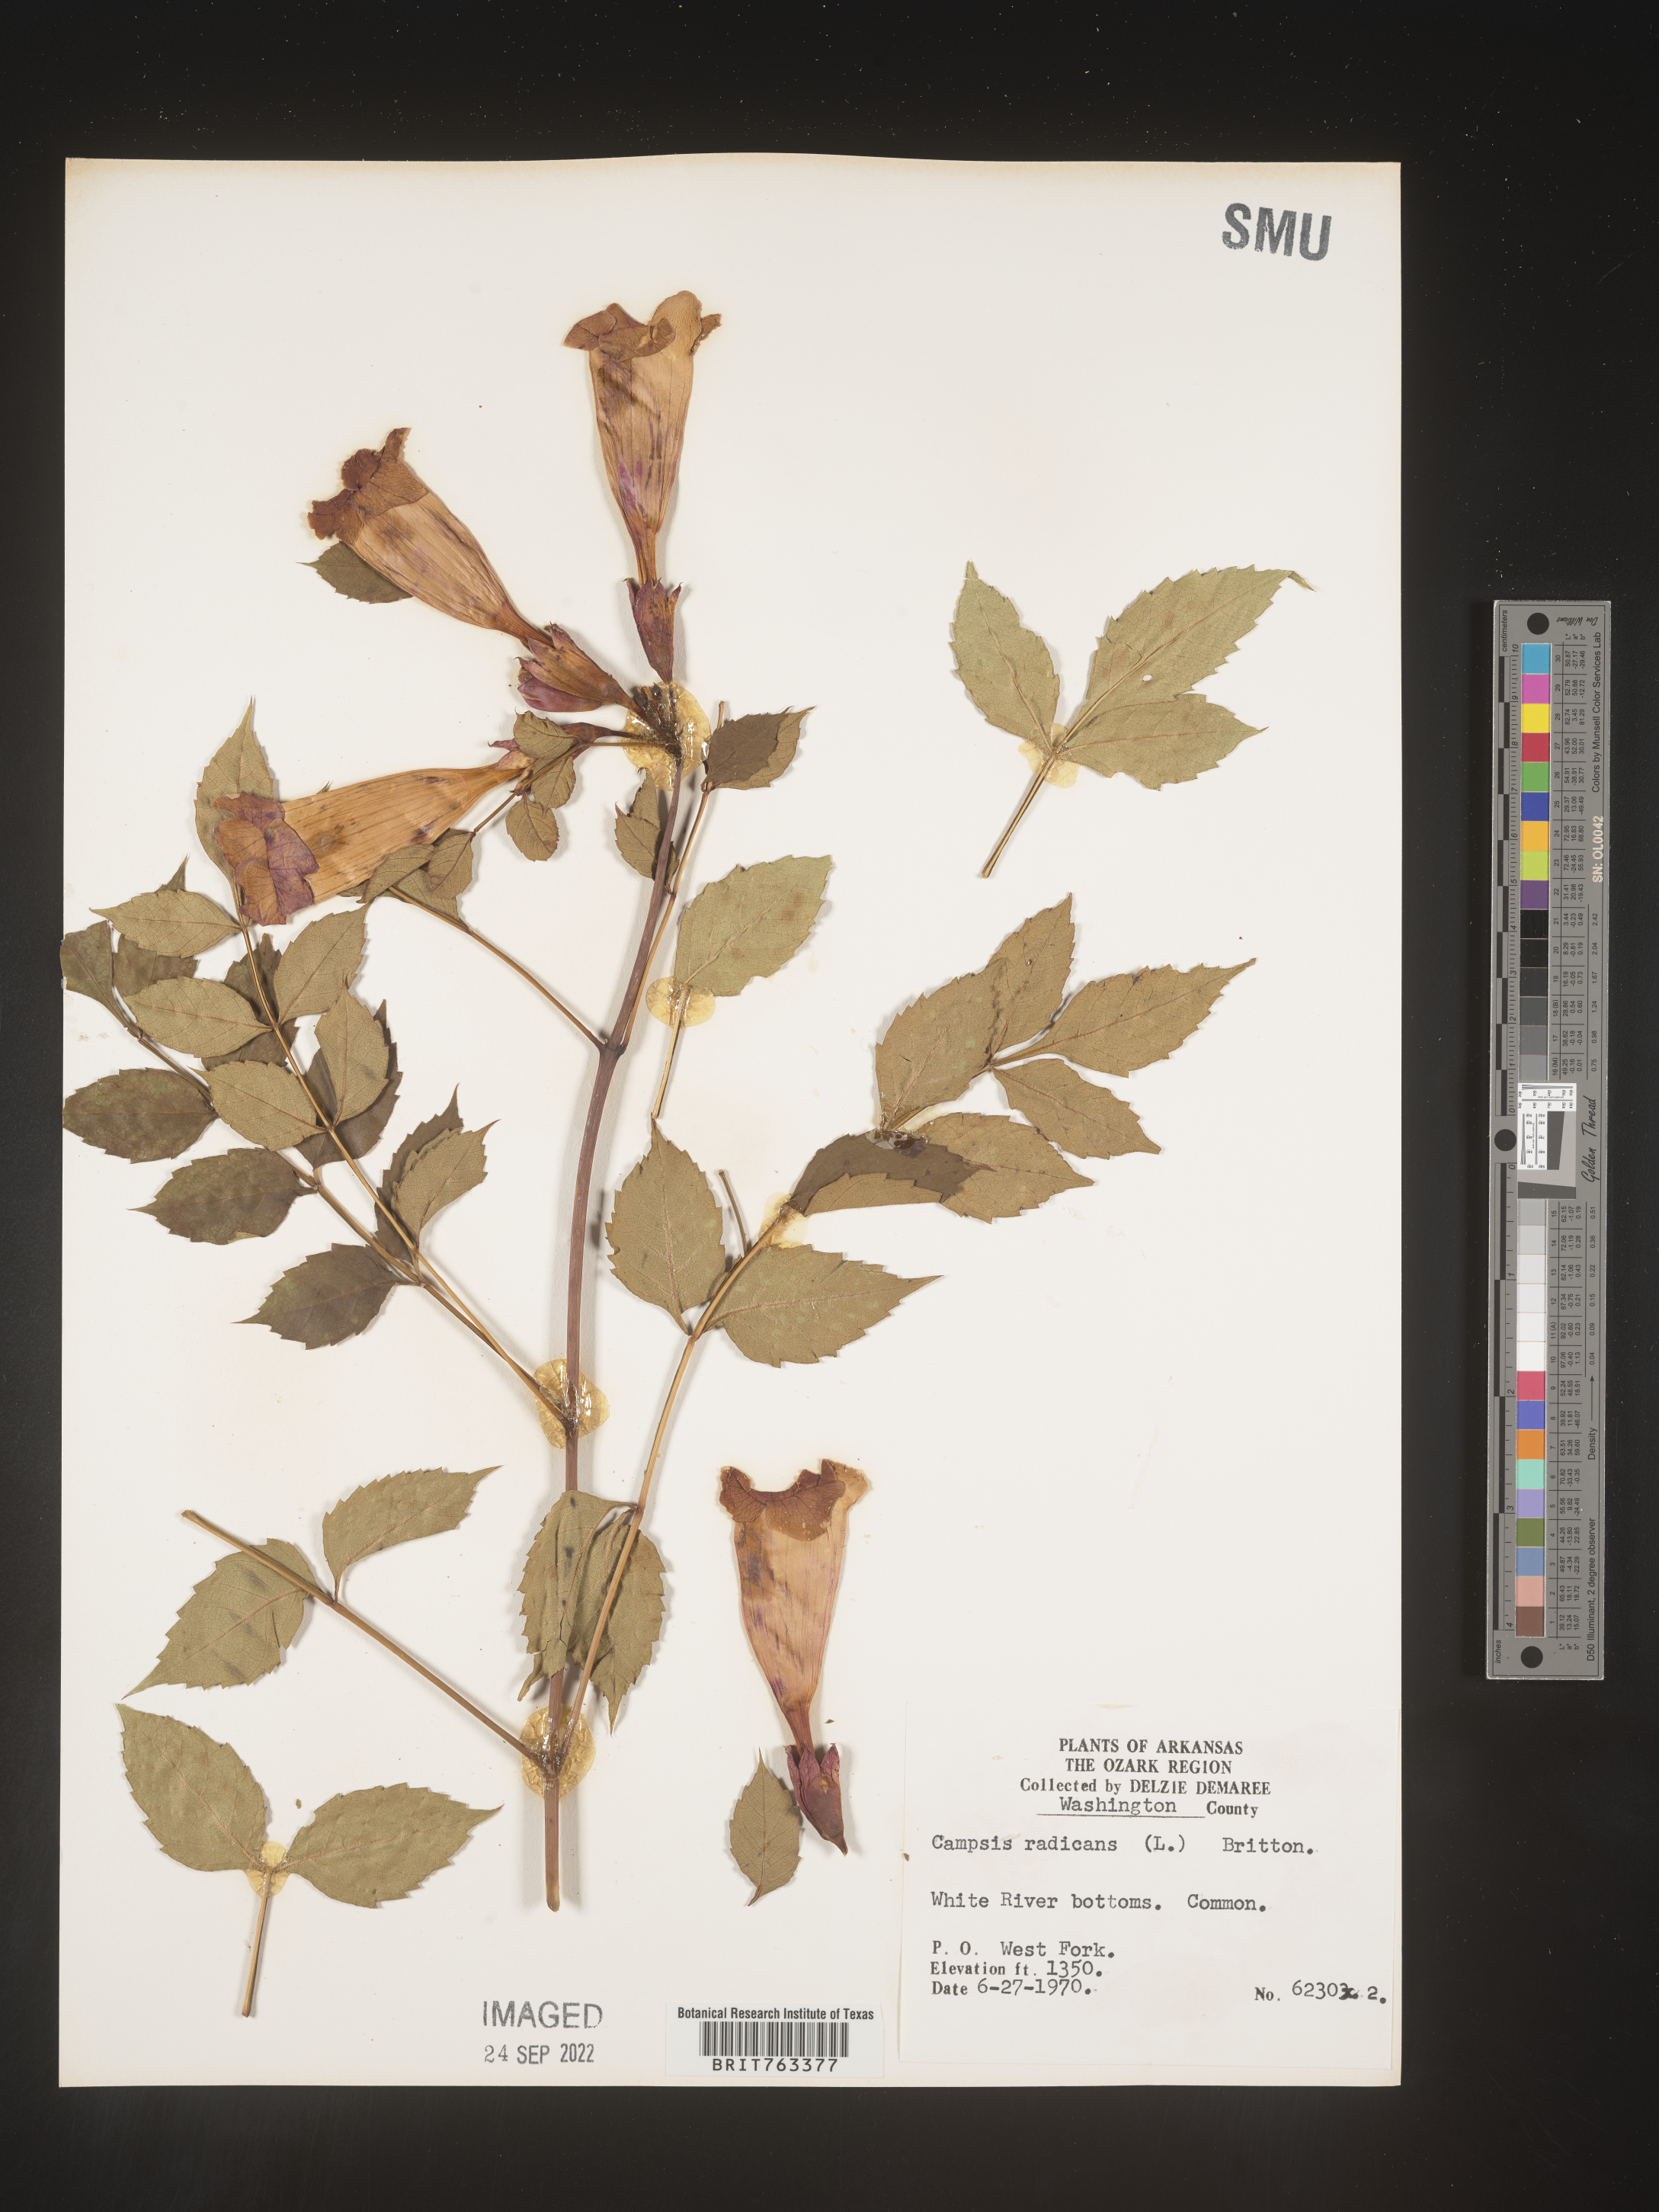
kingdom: Plantae
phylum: Tracheophyta
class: Magnoliopsida
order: Lamiales
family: Bignoniaceae
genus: Campsis
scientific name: Campsis radicans
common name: Trumpet-creeper
